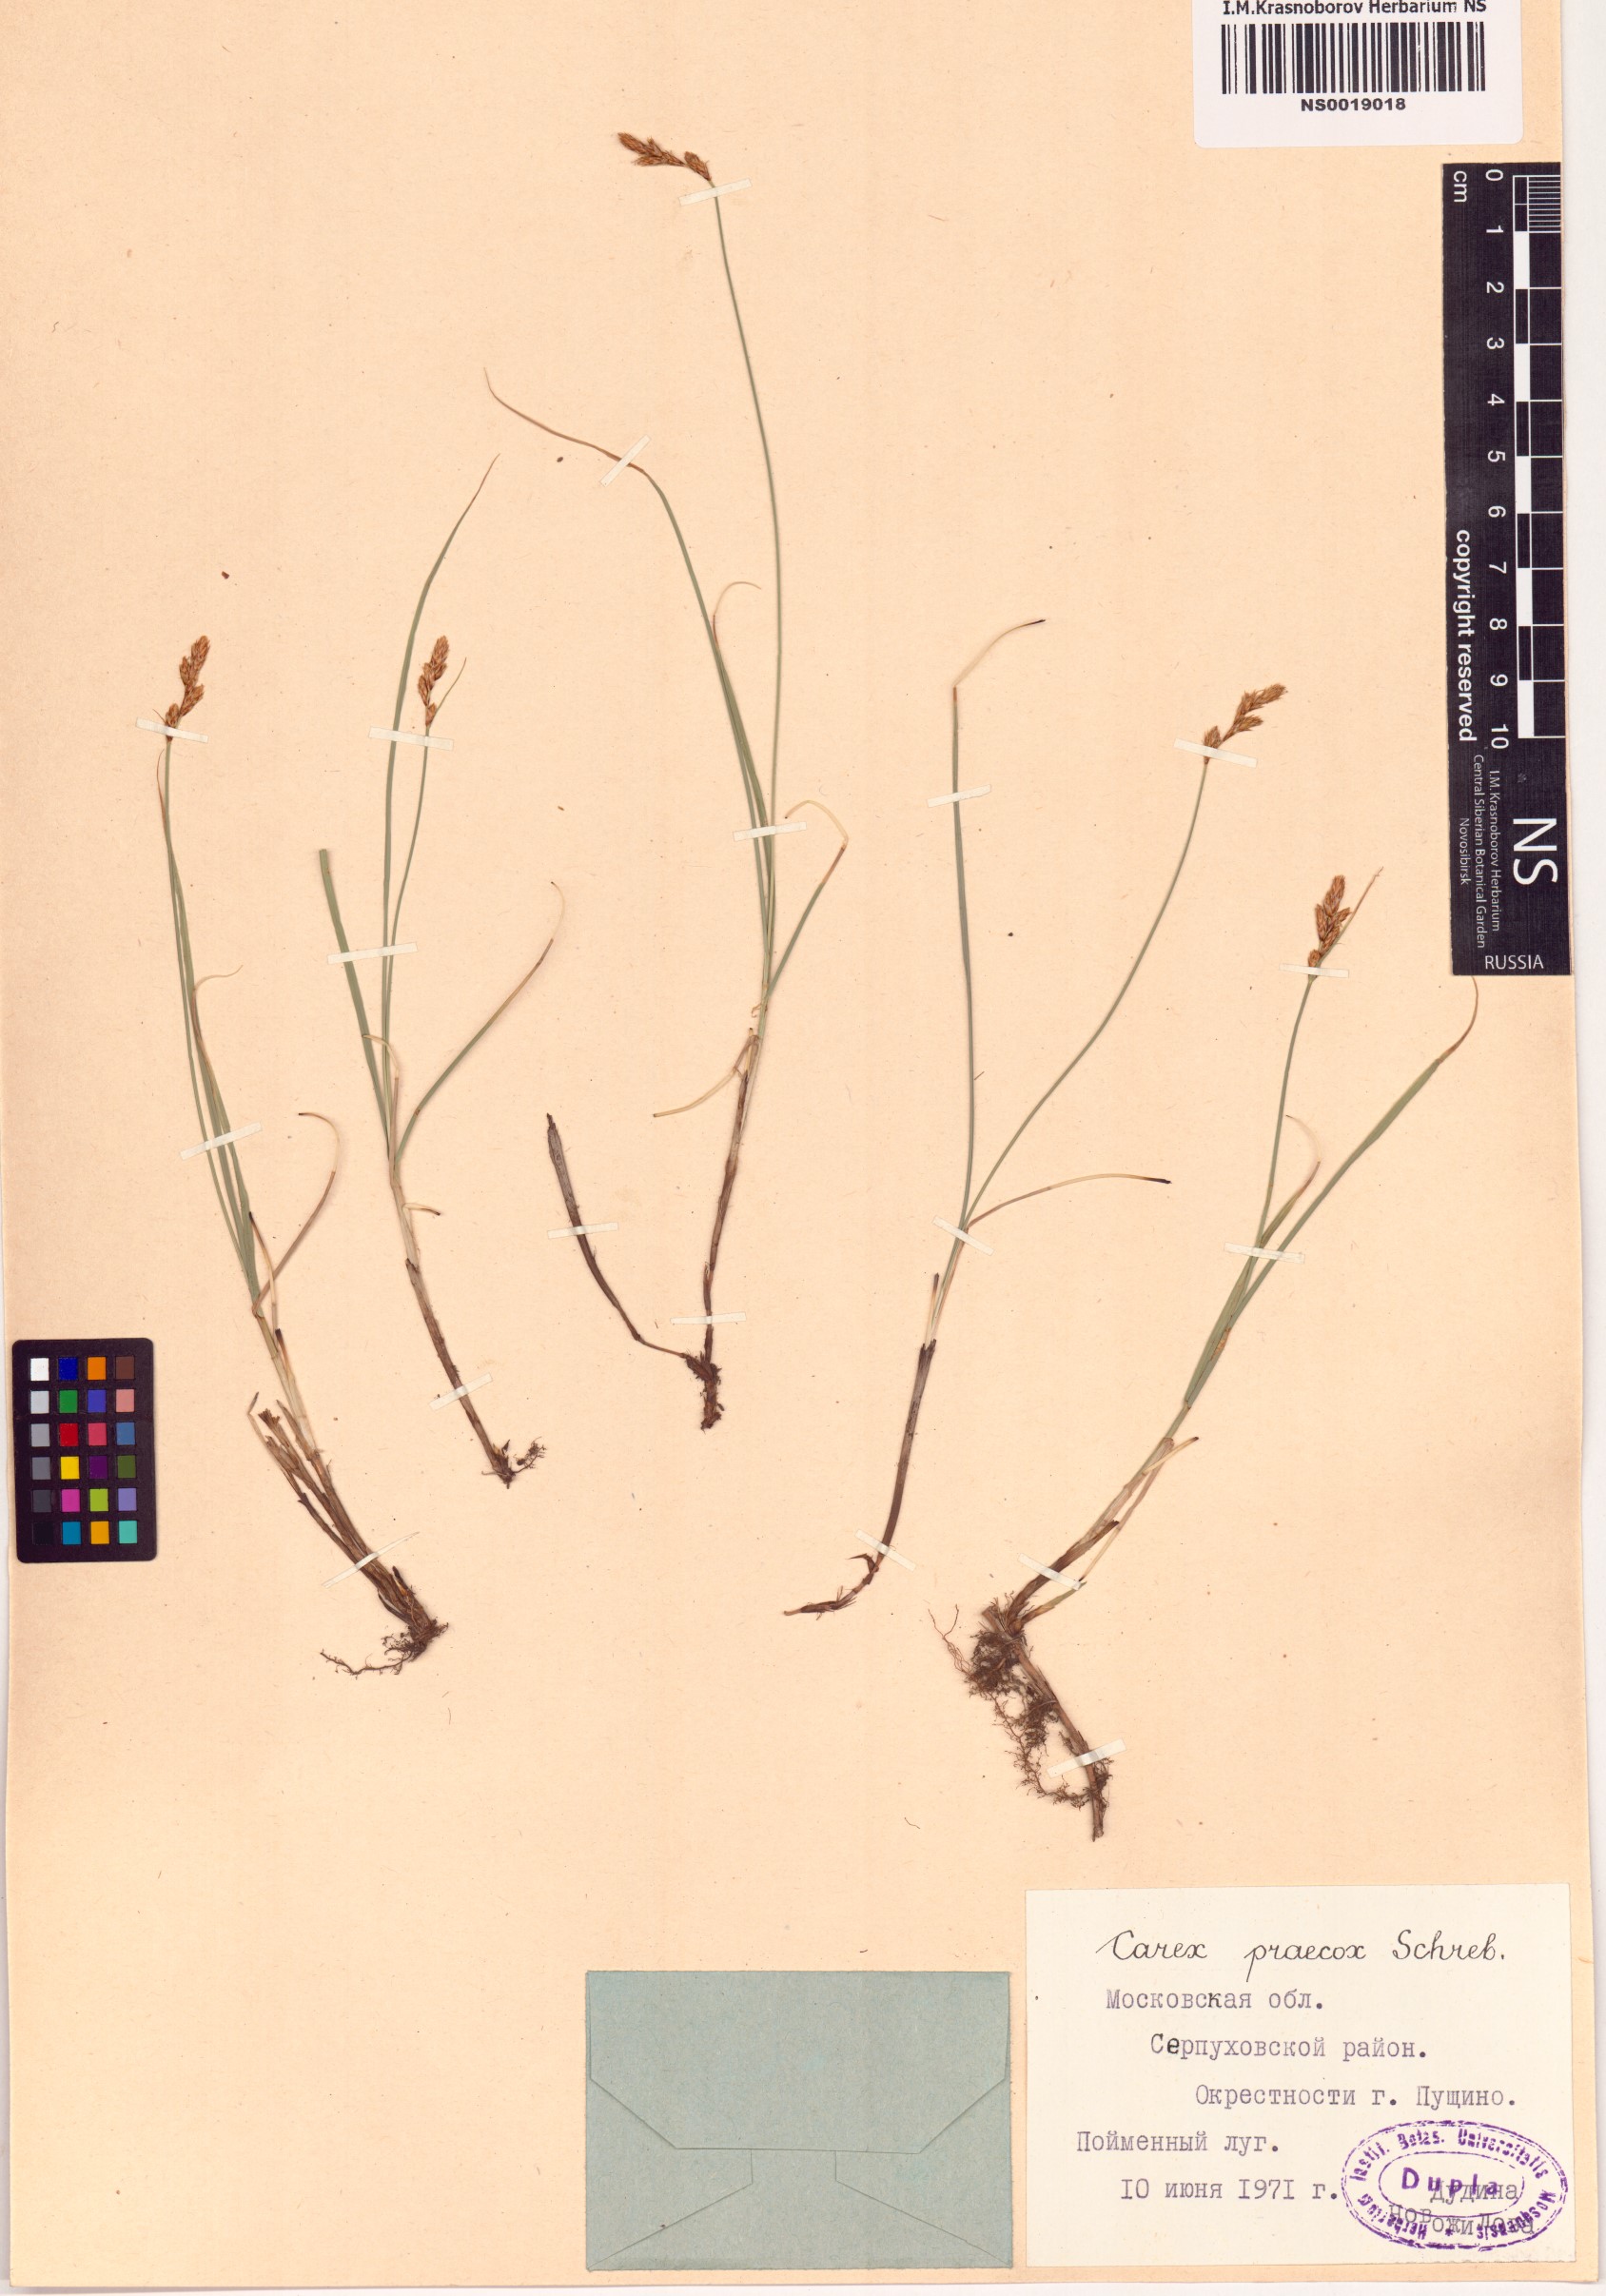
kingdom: Plantae
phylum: Tracheophyta
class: Liliopsida
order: Poales
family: Cyperaceae
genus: Carex
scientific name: Carex praecox
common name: Early sedge
